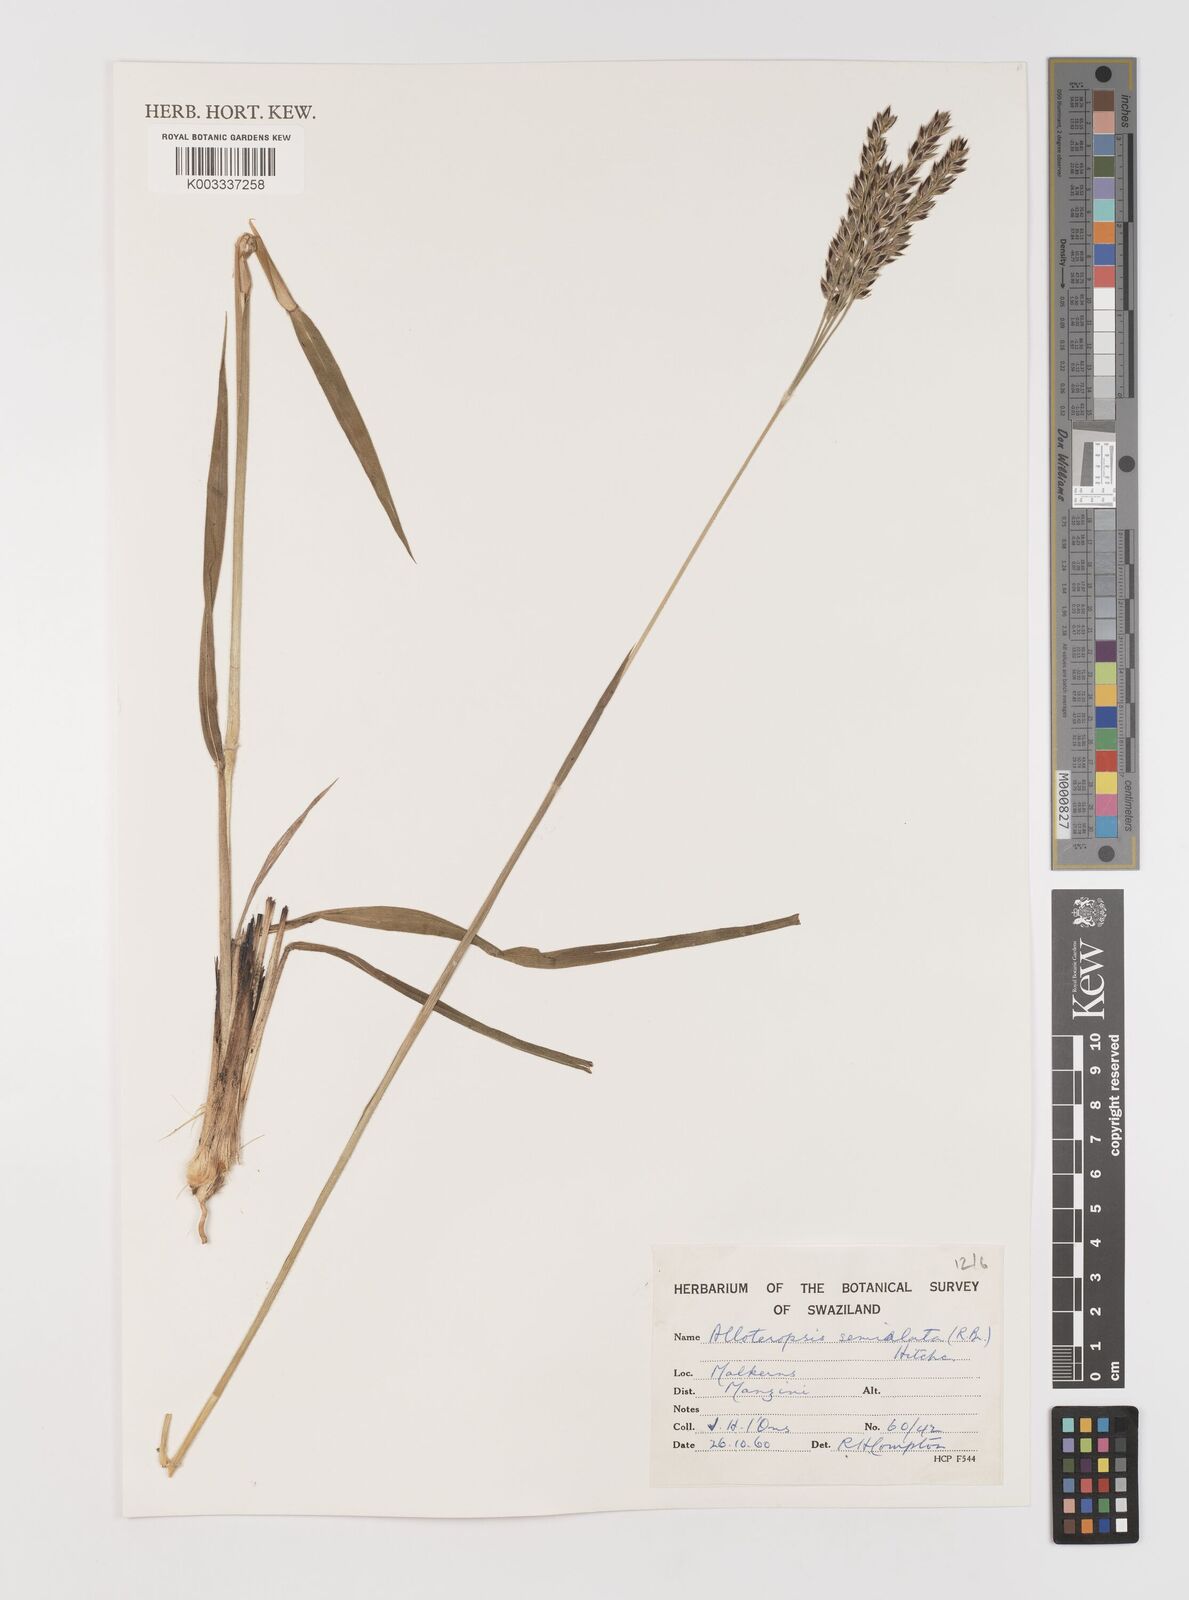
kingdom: Plantae
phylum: Tracheophyta
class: Liliopsida
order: Poales
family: Poaceae
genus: Alloteropsis
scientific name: Alloteropsis semialata
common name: Cockatoo grass
